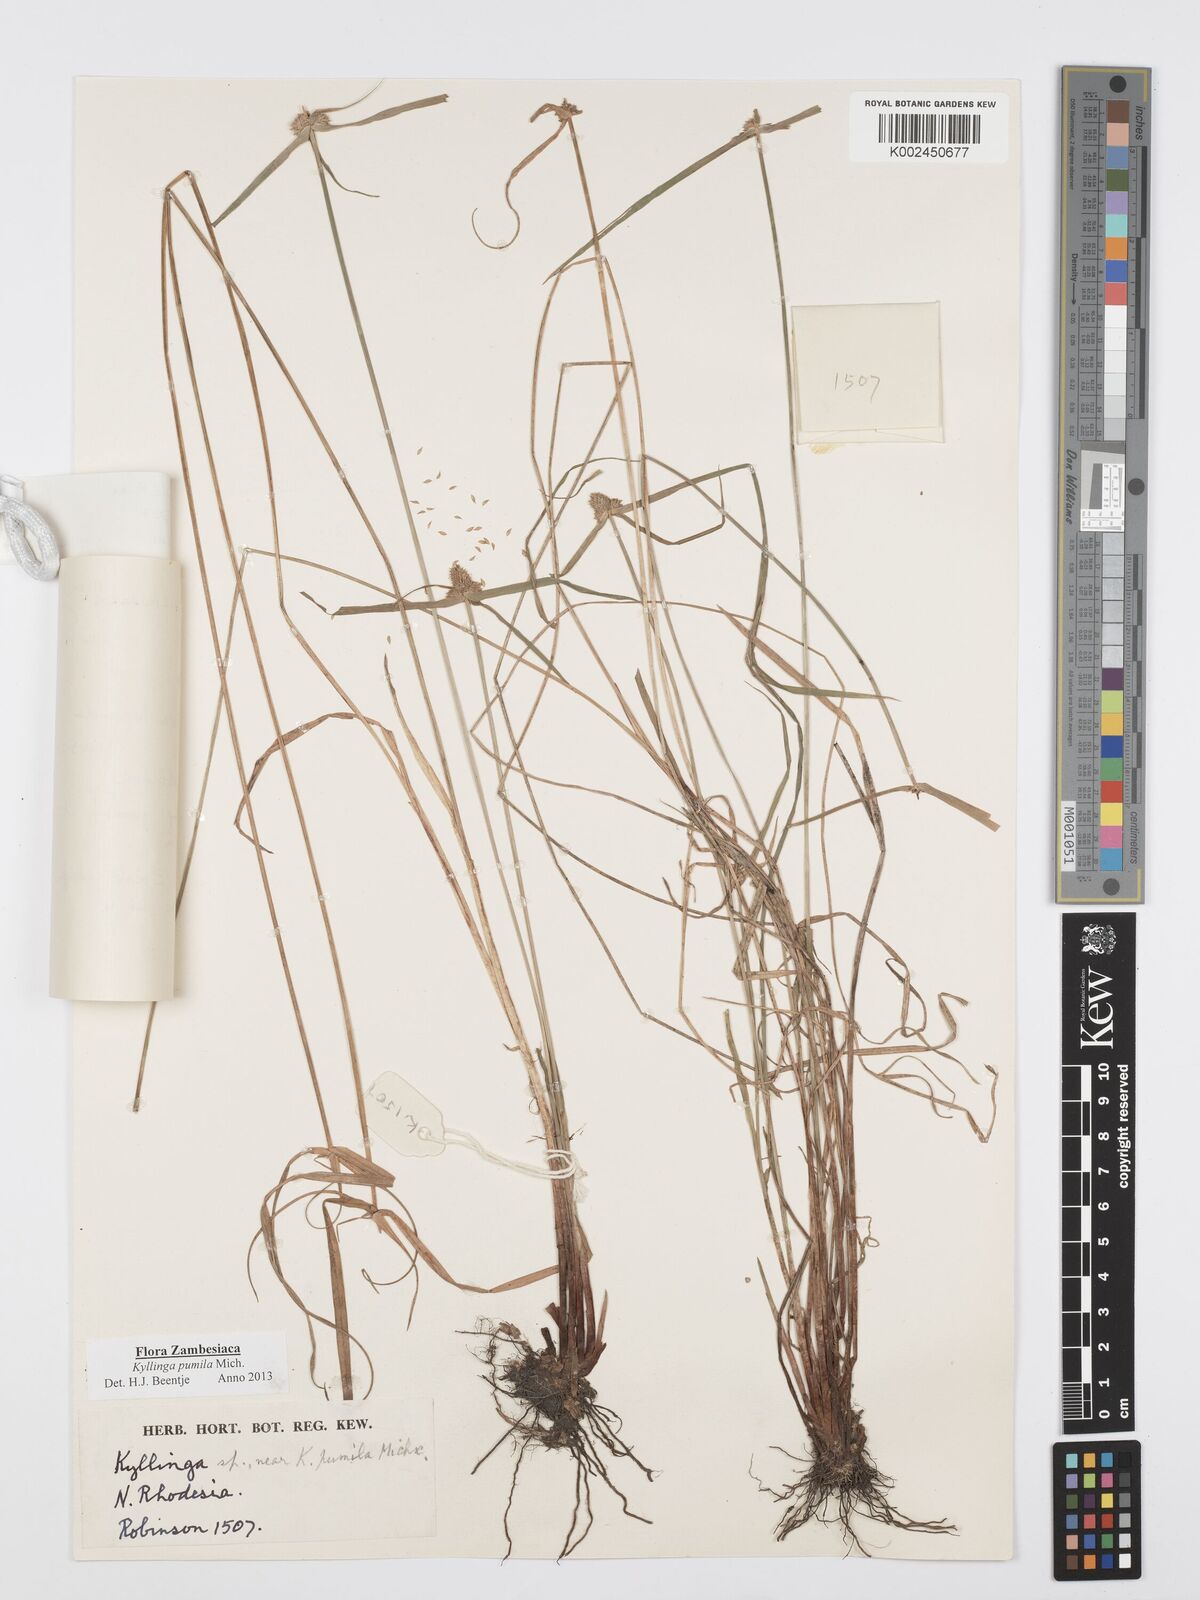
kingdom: Plantae
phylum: Tracheophyta
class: Liliopsida
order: Poales
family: Cyperaceae
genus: Cyperus
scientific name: Cyperus pumilus
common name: Low flatsedge
